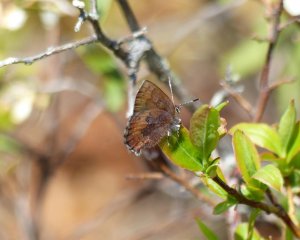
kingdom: Animalia
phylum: Arthropoda
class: Insecta
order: Lepidoptera
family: Lycaenidae
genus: Incisalia
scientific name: Incisalia irioides
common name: Brown Elfin
